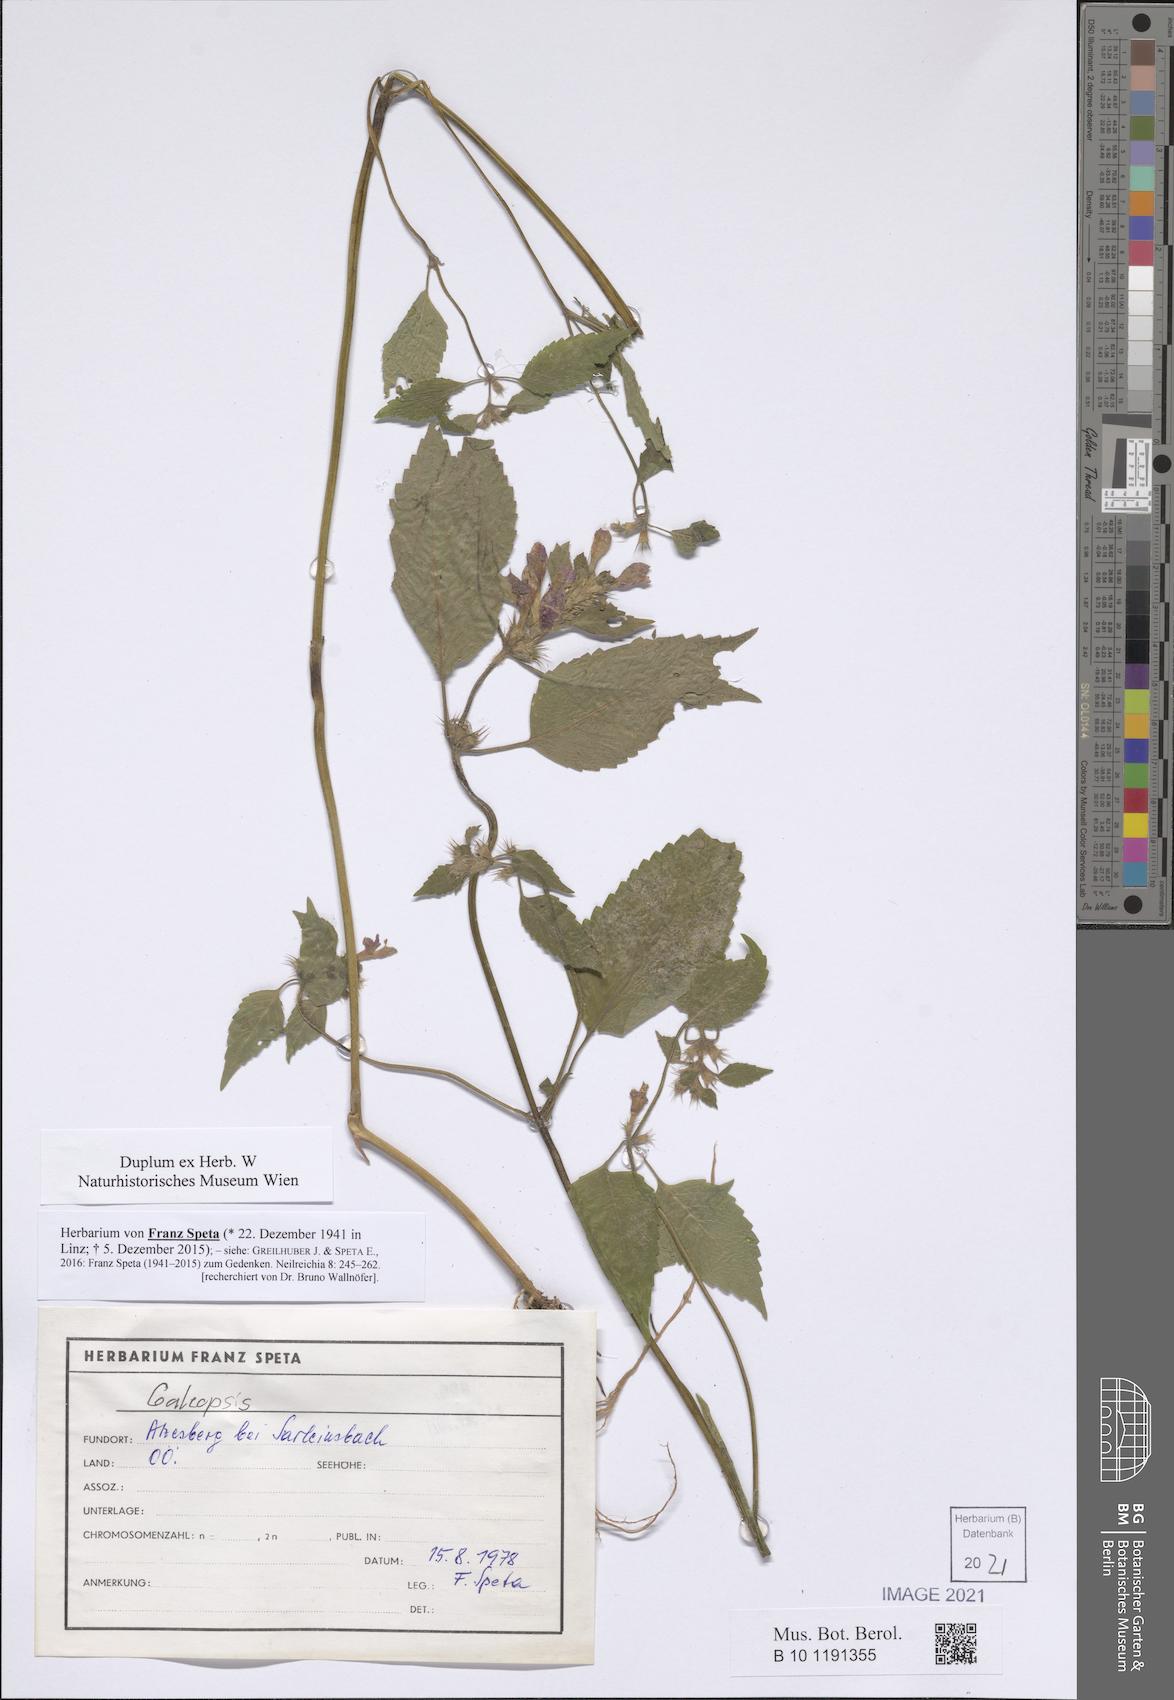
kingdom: Plantae
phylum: Tracheophyta
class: Magnoliopsida
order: Lamiales
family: Lamiaceae
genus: Galeopsis
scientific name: Galeopsis
